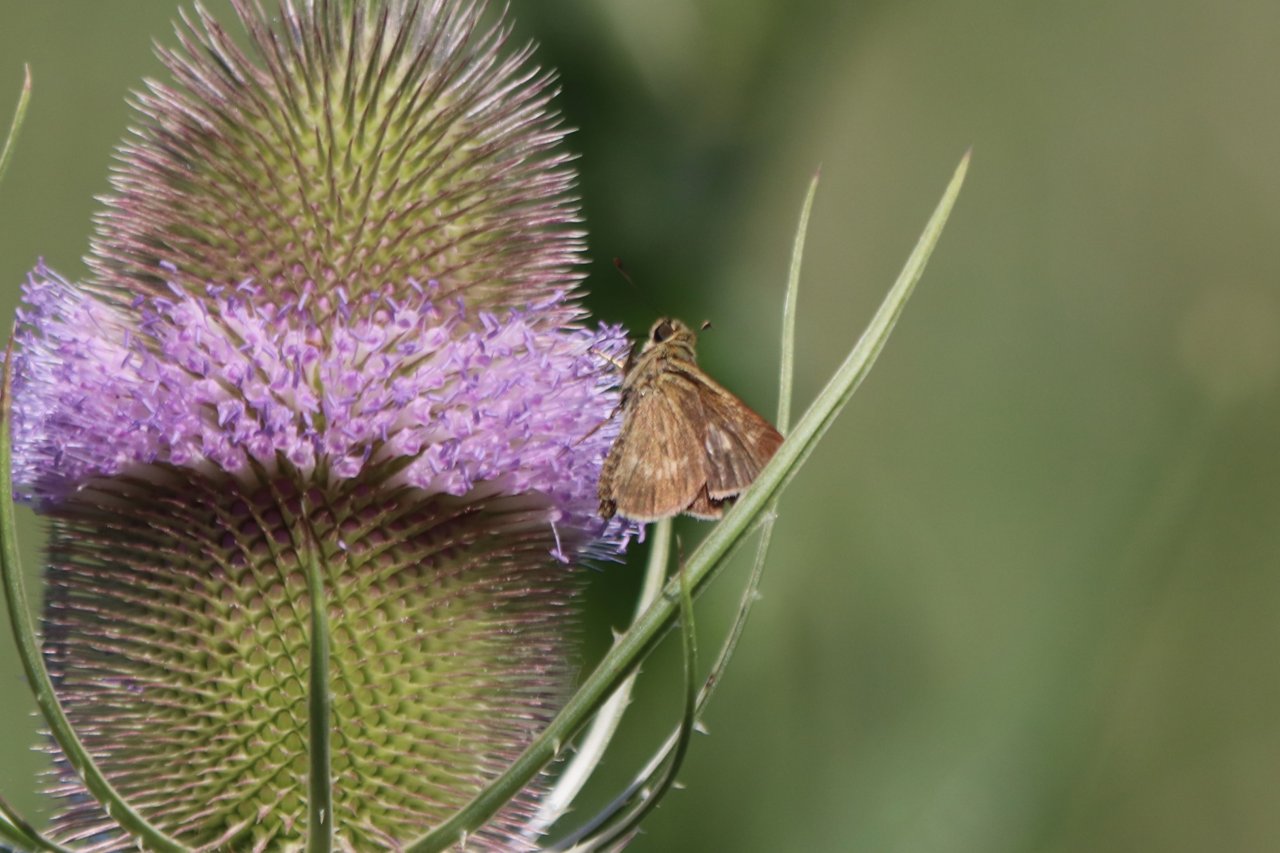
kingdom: Animalia
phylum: Arthropoda
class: Insecta
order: Lepidoptera
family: Hesperiidae
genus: Polites
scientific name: Polites egeremet
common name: Northern Broken-Dash
